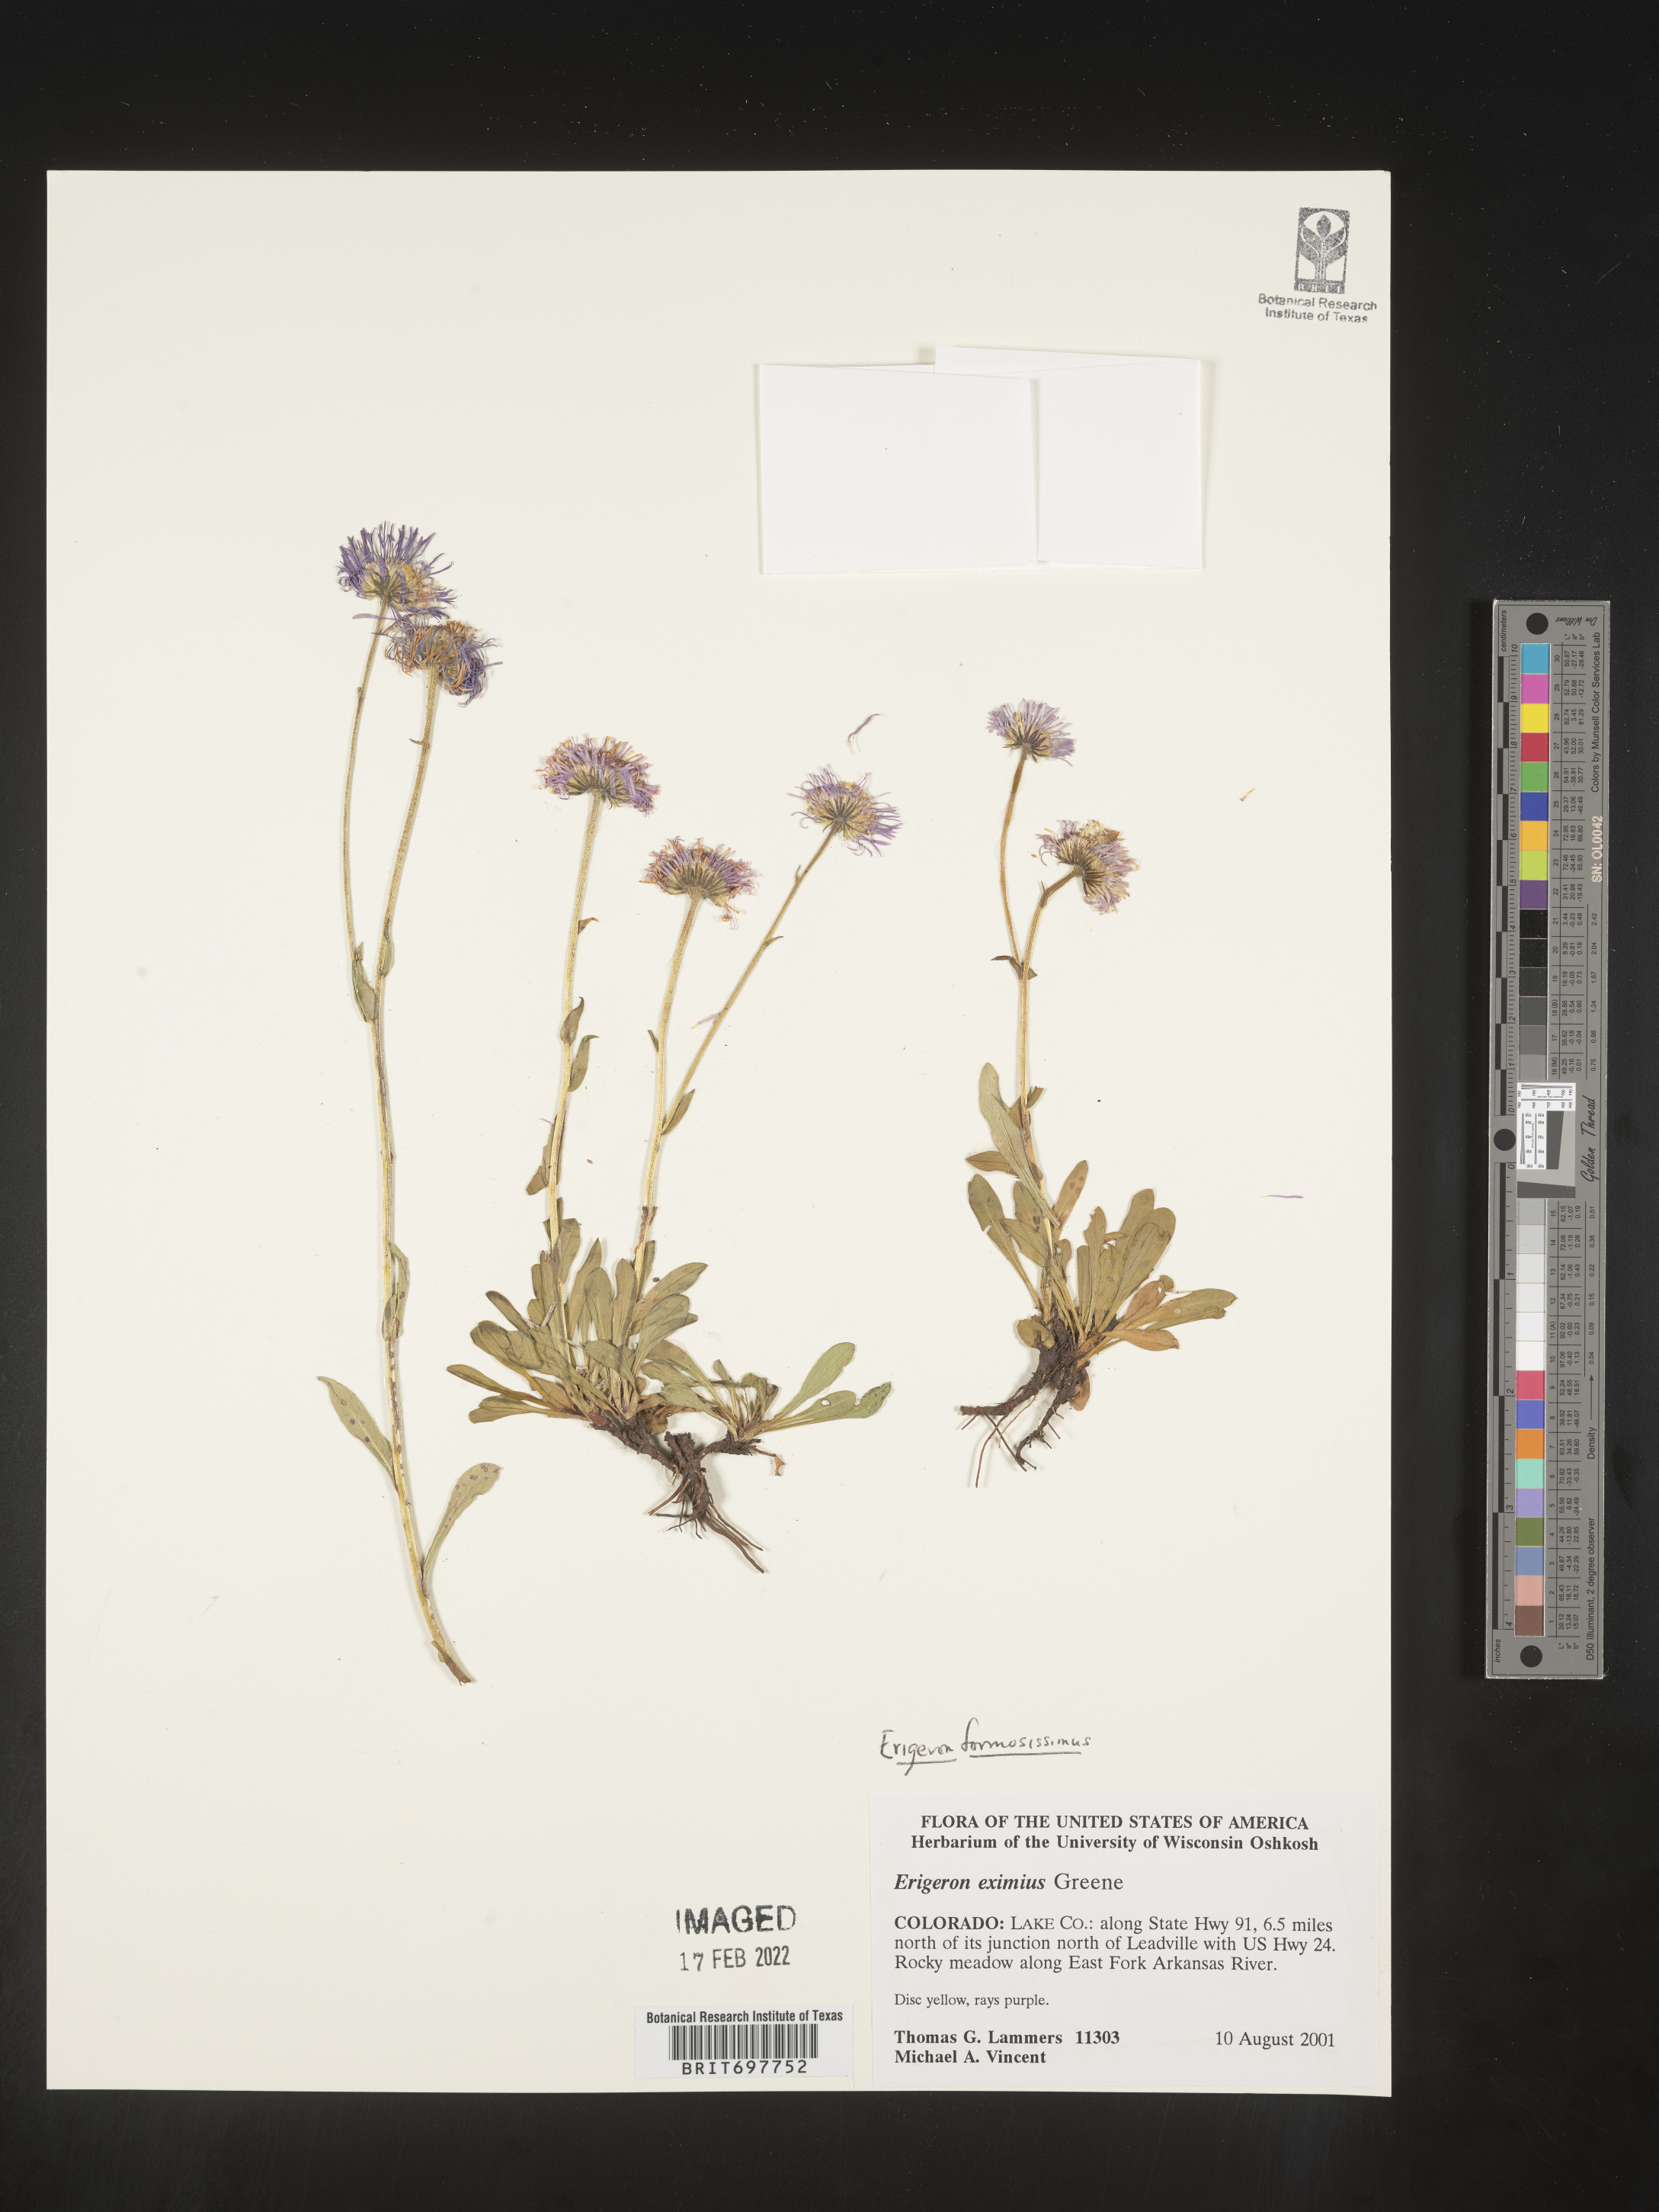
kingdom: Plantae
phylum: Tracheophyta
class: Magnoliopsida
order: Asterales
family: Asteraceae
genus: Erigeron
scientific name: Erigeron formosissimus
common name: Beautiful fleabane
